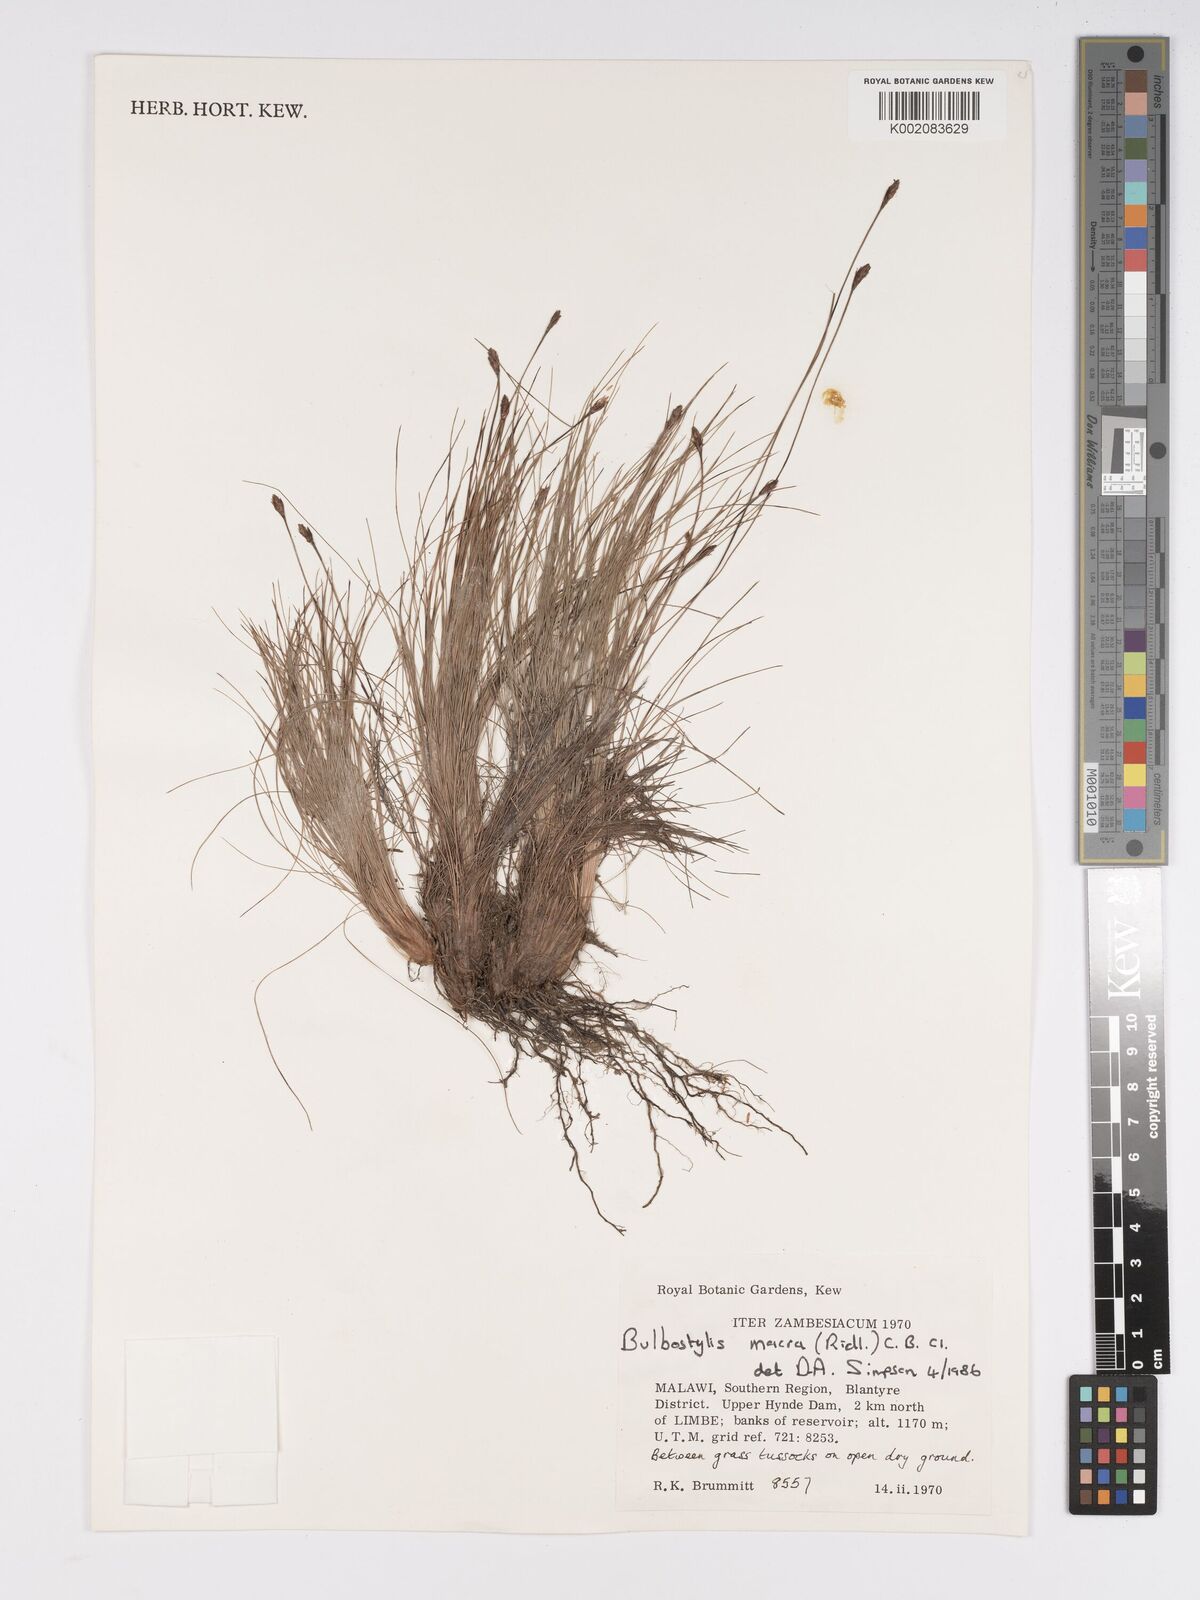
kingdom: Plantae
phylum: Tracheophyta
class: Liliopsida
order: Poales
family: Cyperaceae
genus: Bulbostylis
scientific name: Bulbostylis macra
